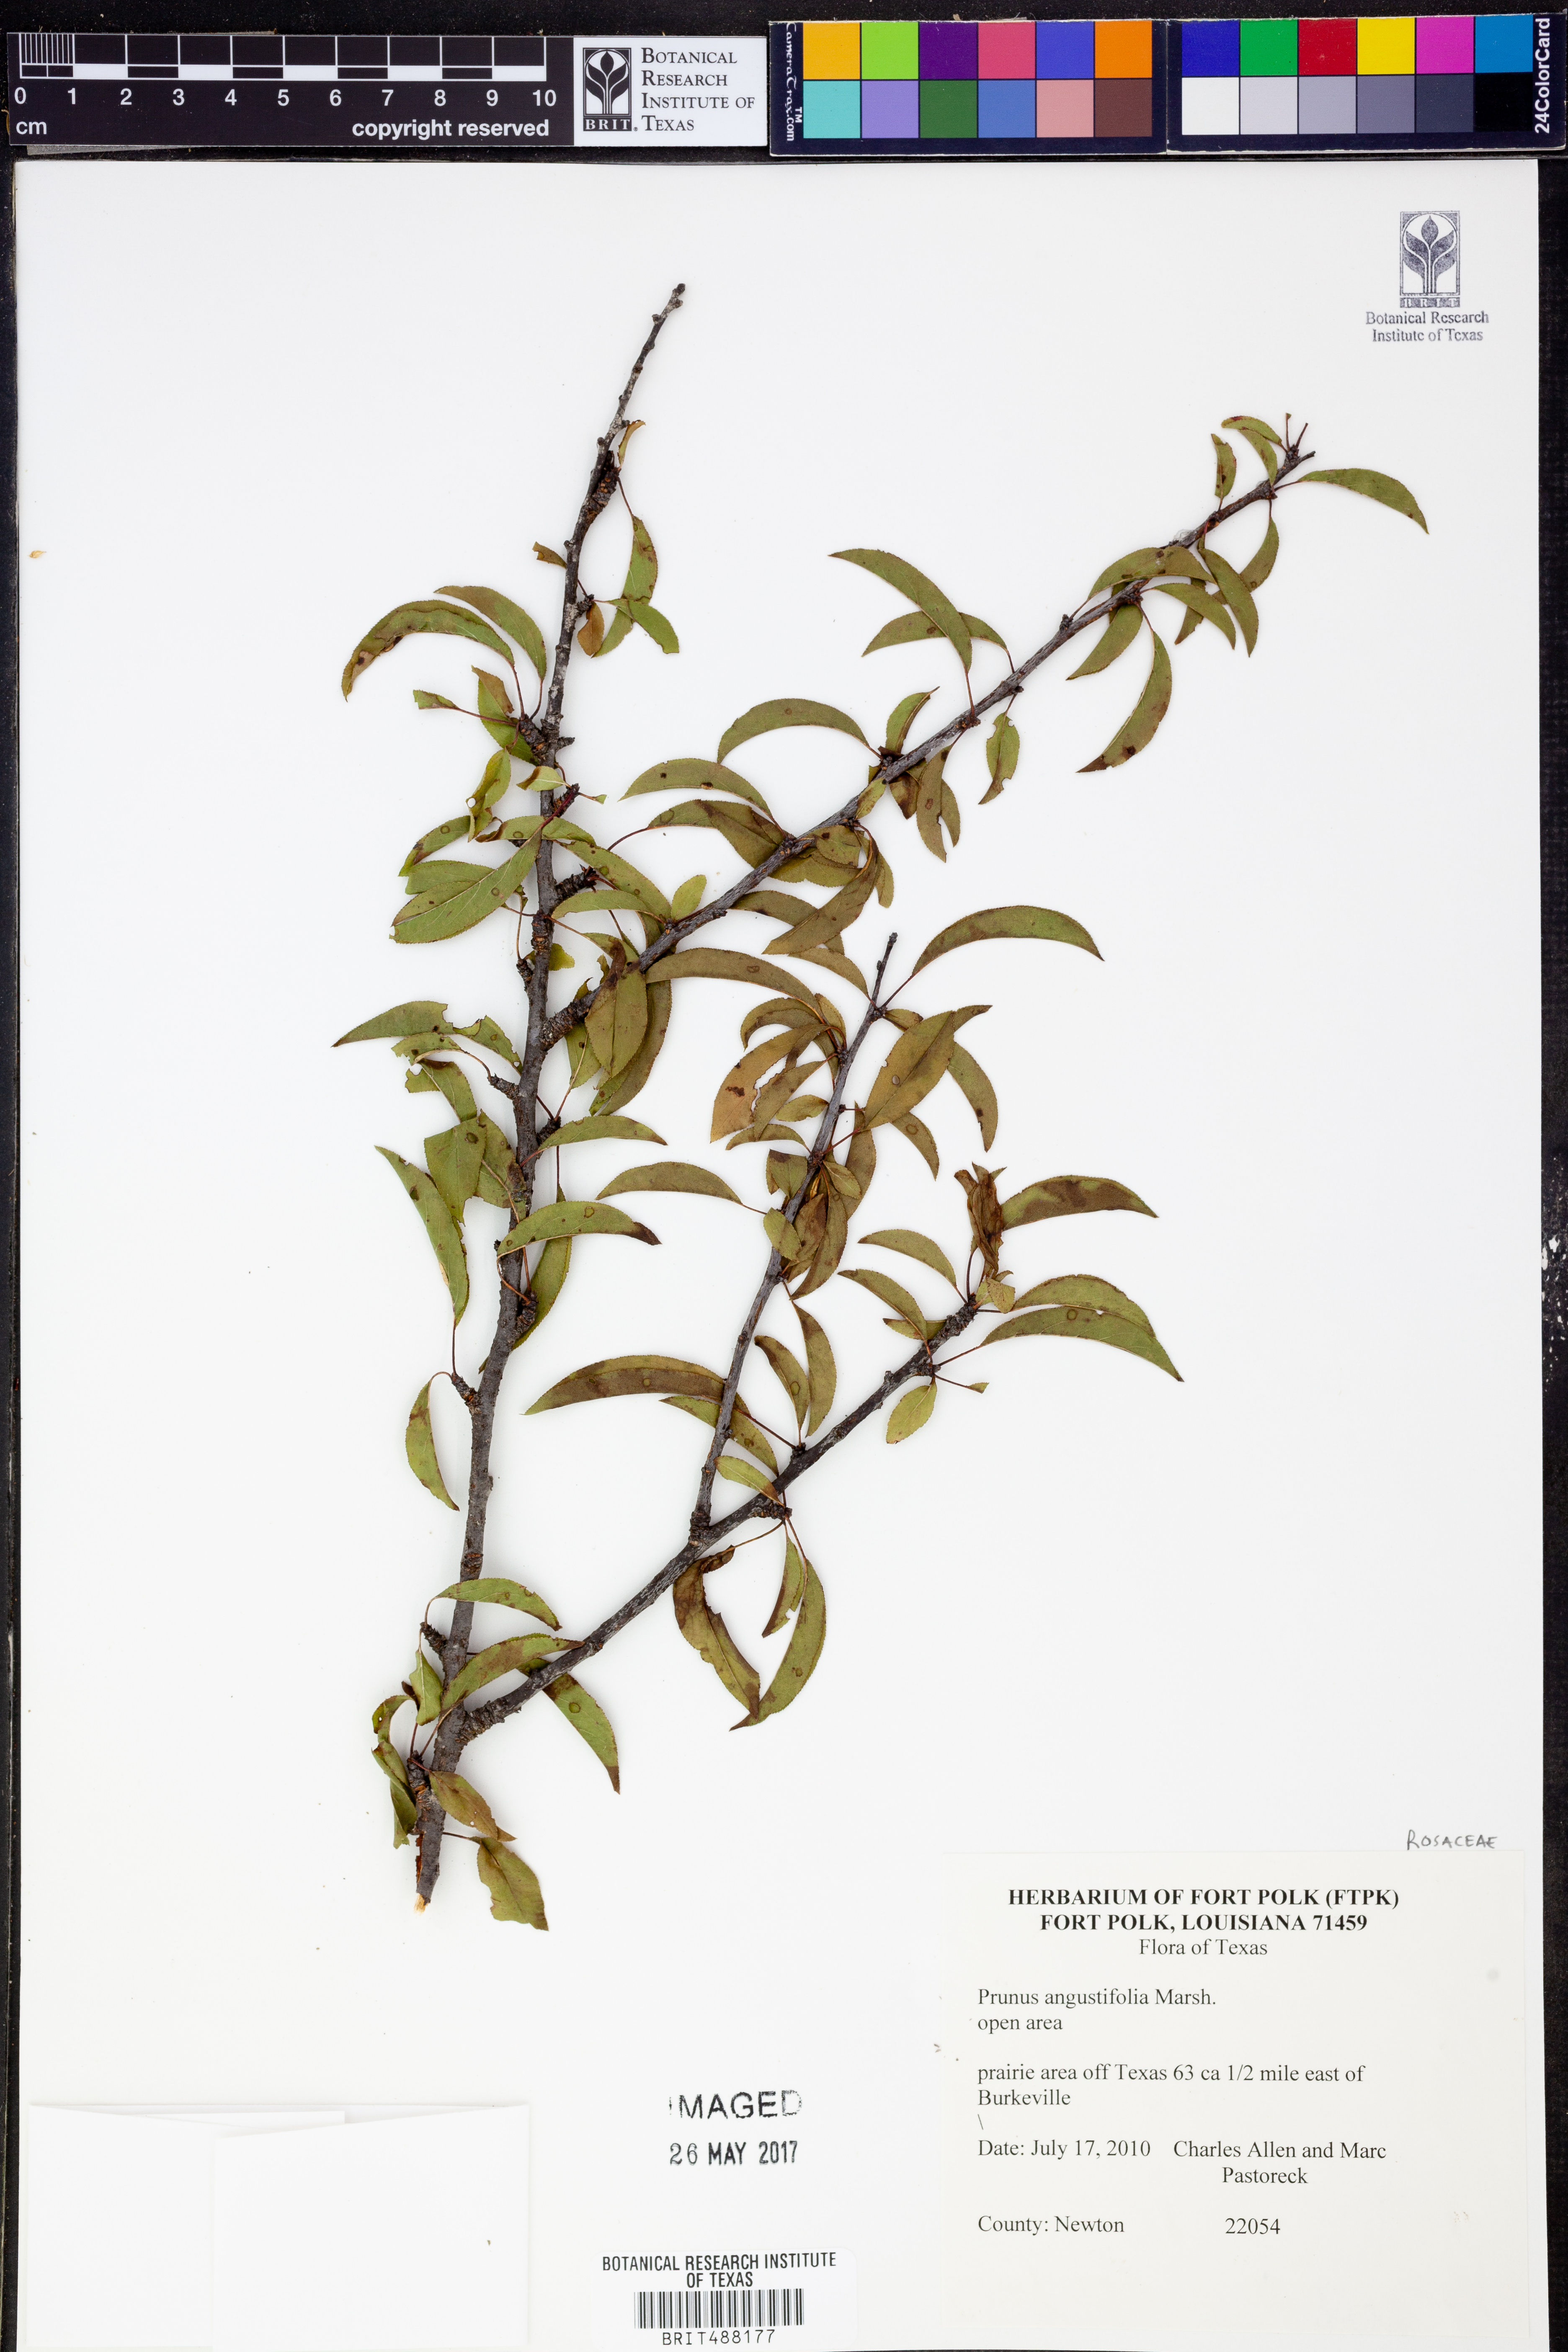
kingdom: Plantae
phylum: Tracheophyta
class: Magnoliopsida
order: Rosales
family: Rosaceae
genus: Prunus
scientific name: Prunus angustifolia
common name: Cherokee plum
